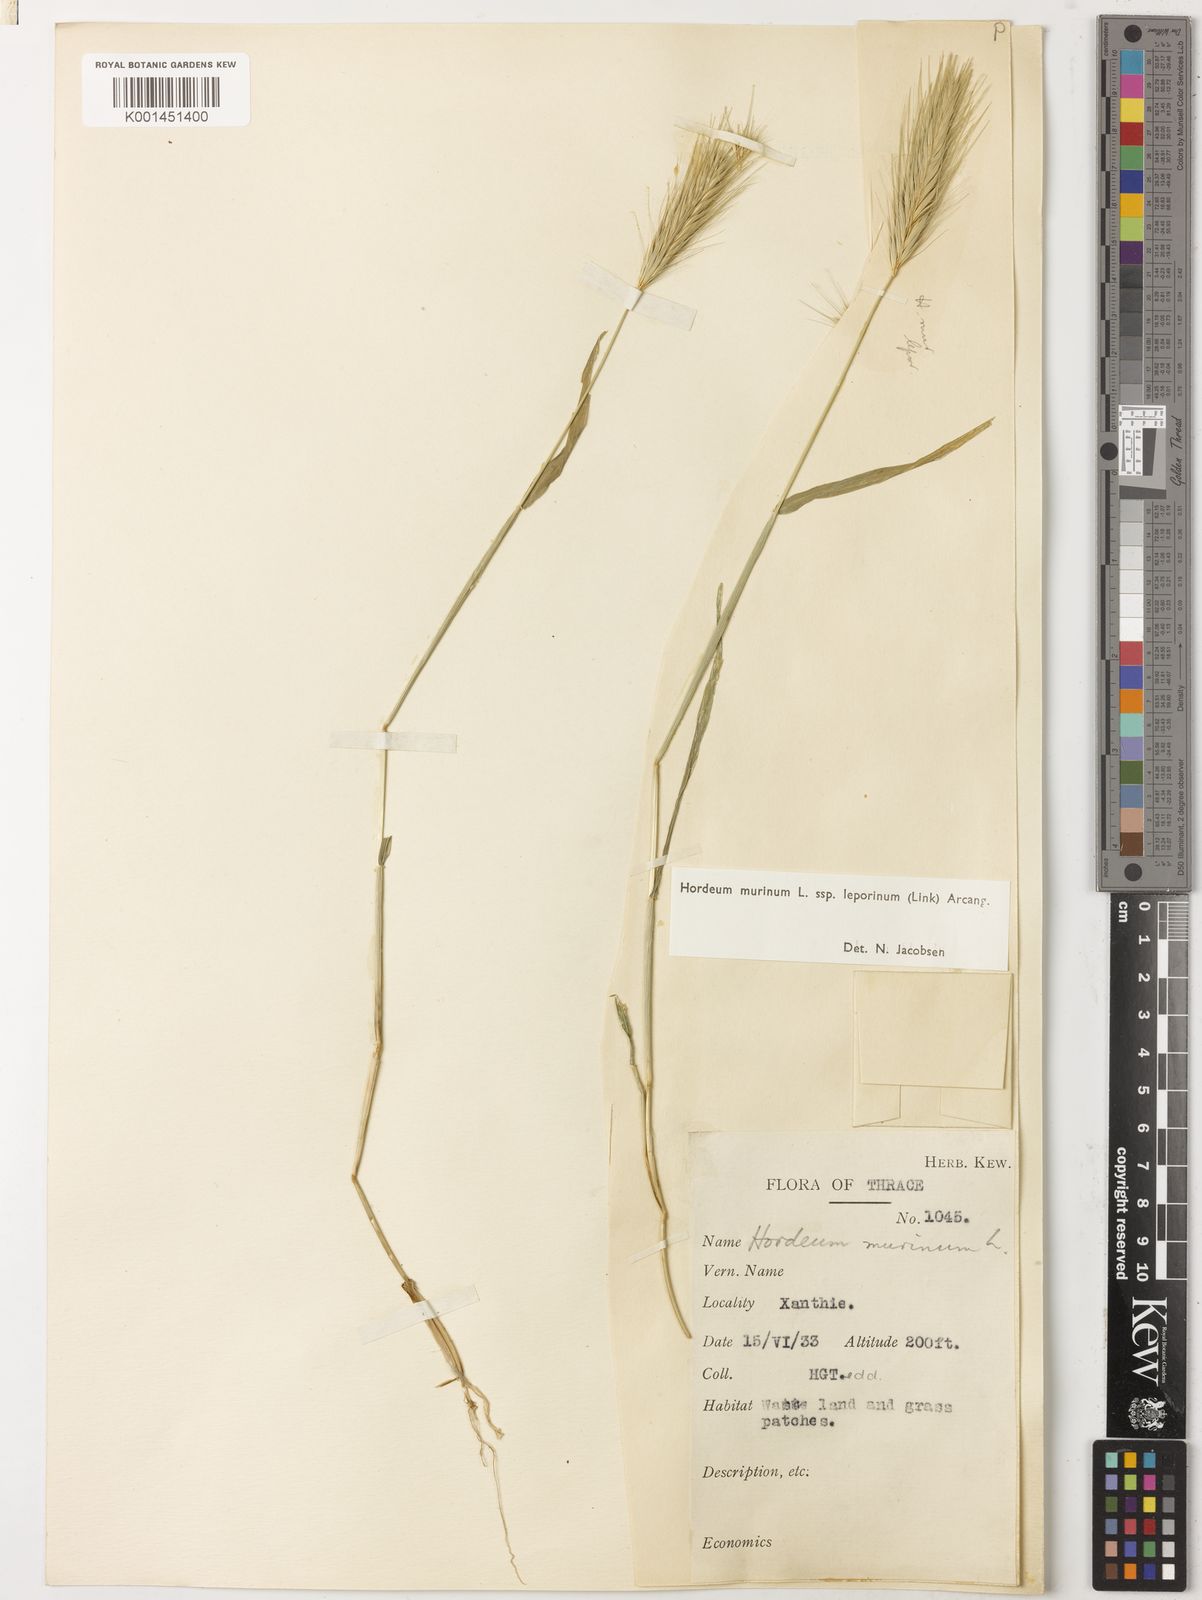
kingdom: Plantae
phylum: Tracheophyta
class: Liliopsida
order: Poales
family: Poaceae
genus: Hordeum
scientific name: Hordeum murinum
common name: Wall barley
